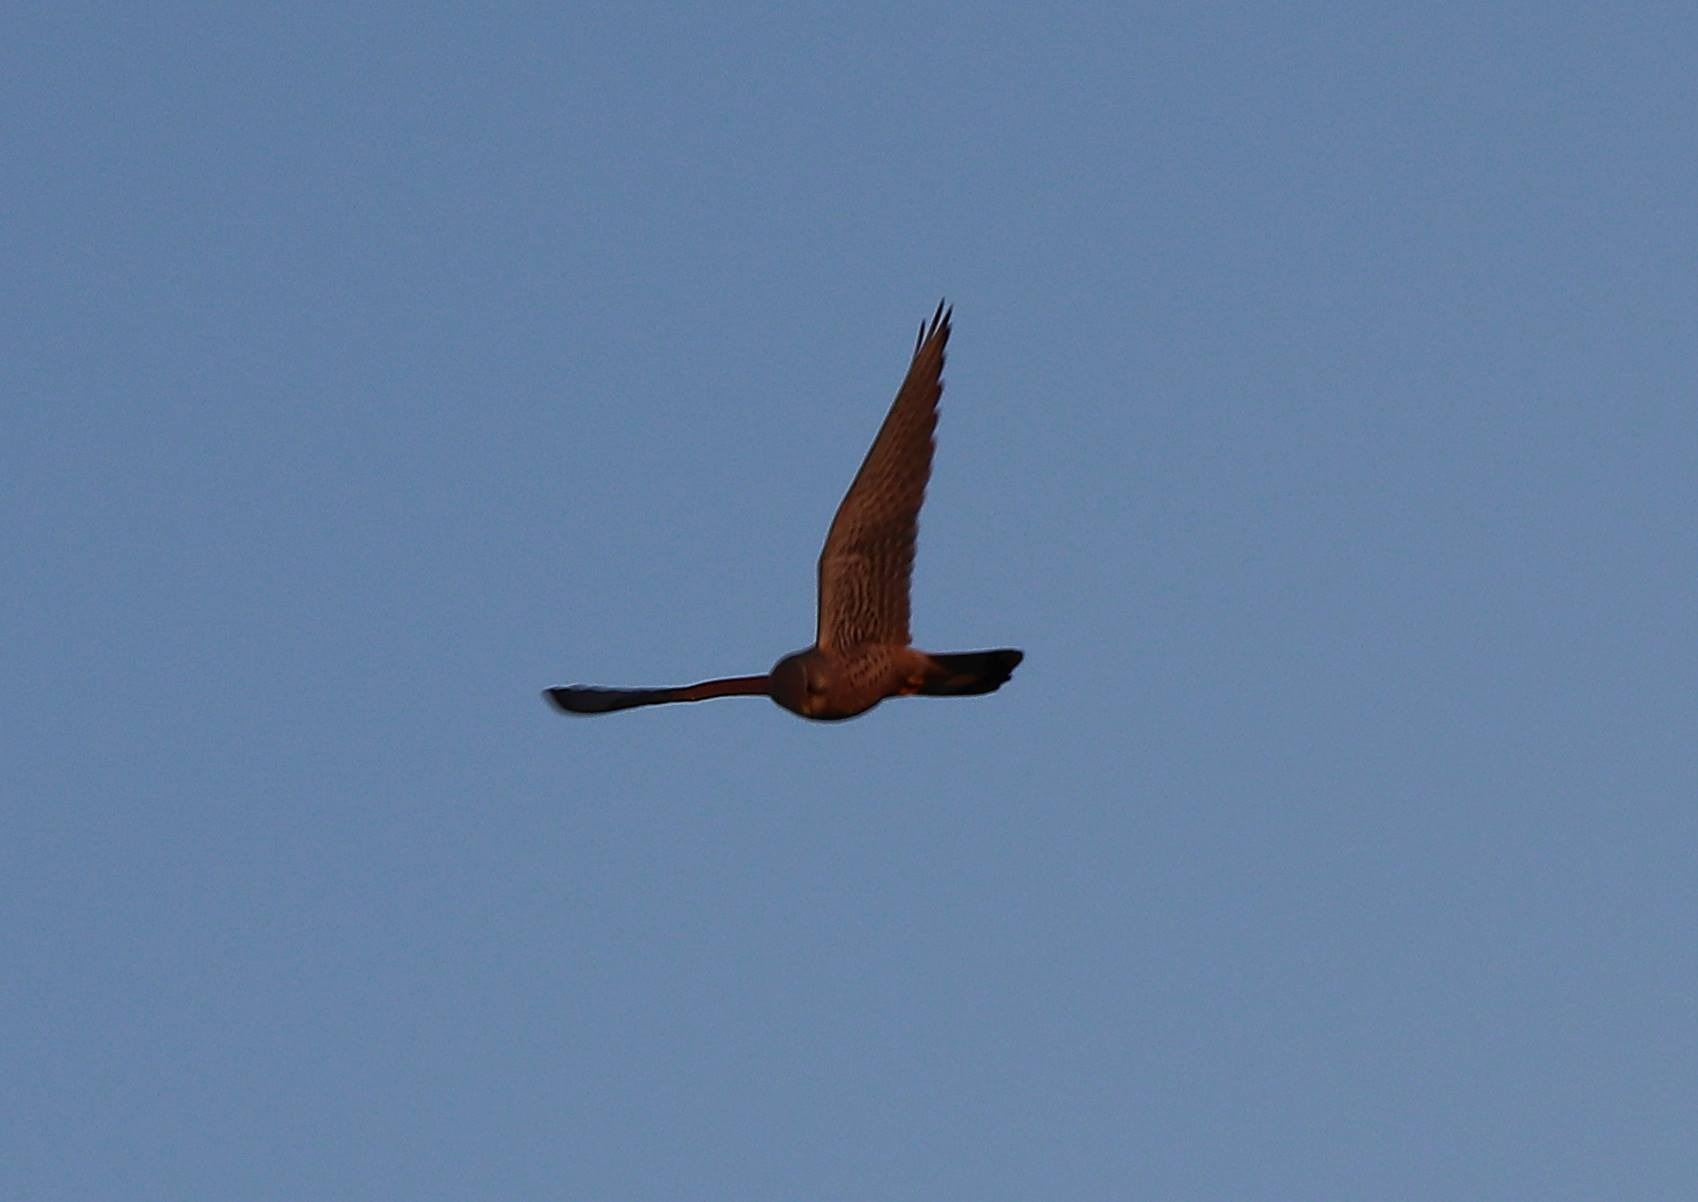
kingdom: Animalia
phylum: Chordata
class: Aves
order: Falconiformes
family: Falconidae
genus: Falco
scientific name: Falco tinnunculus
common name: Tårnfalk
